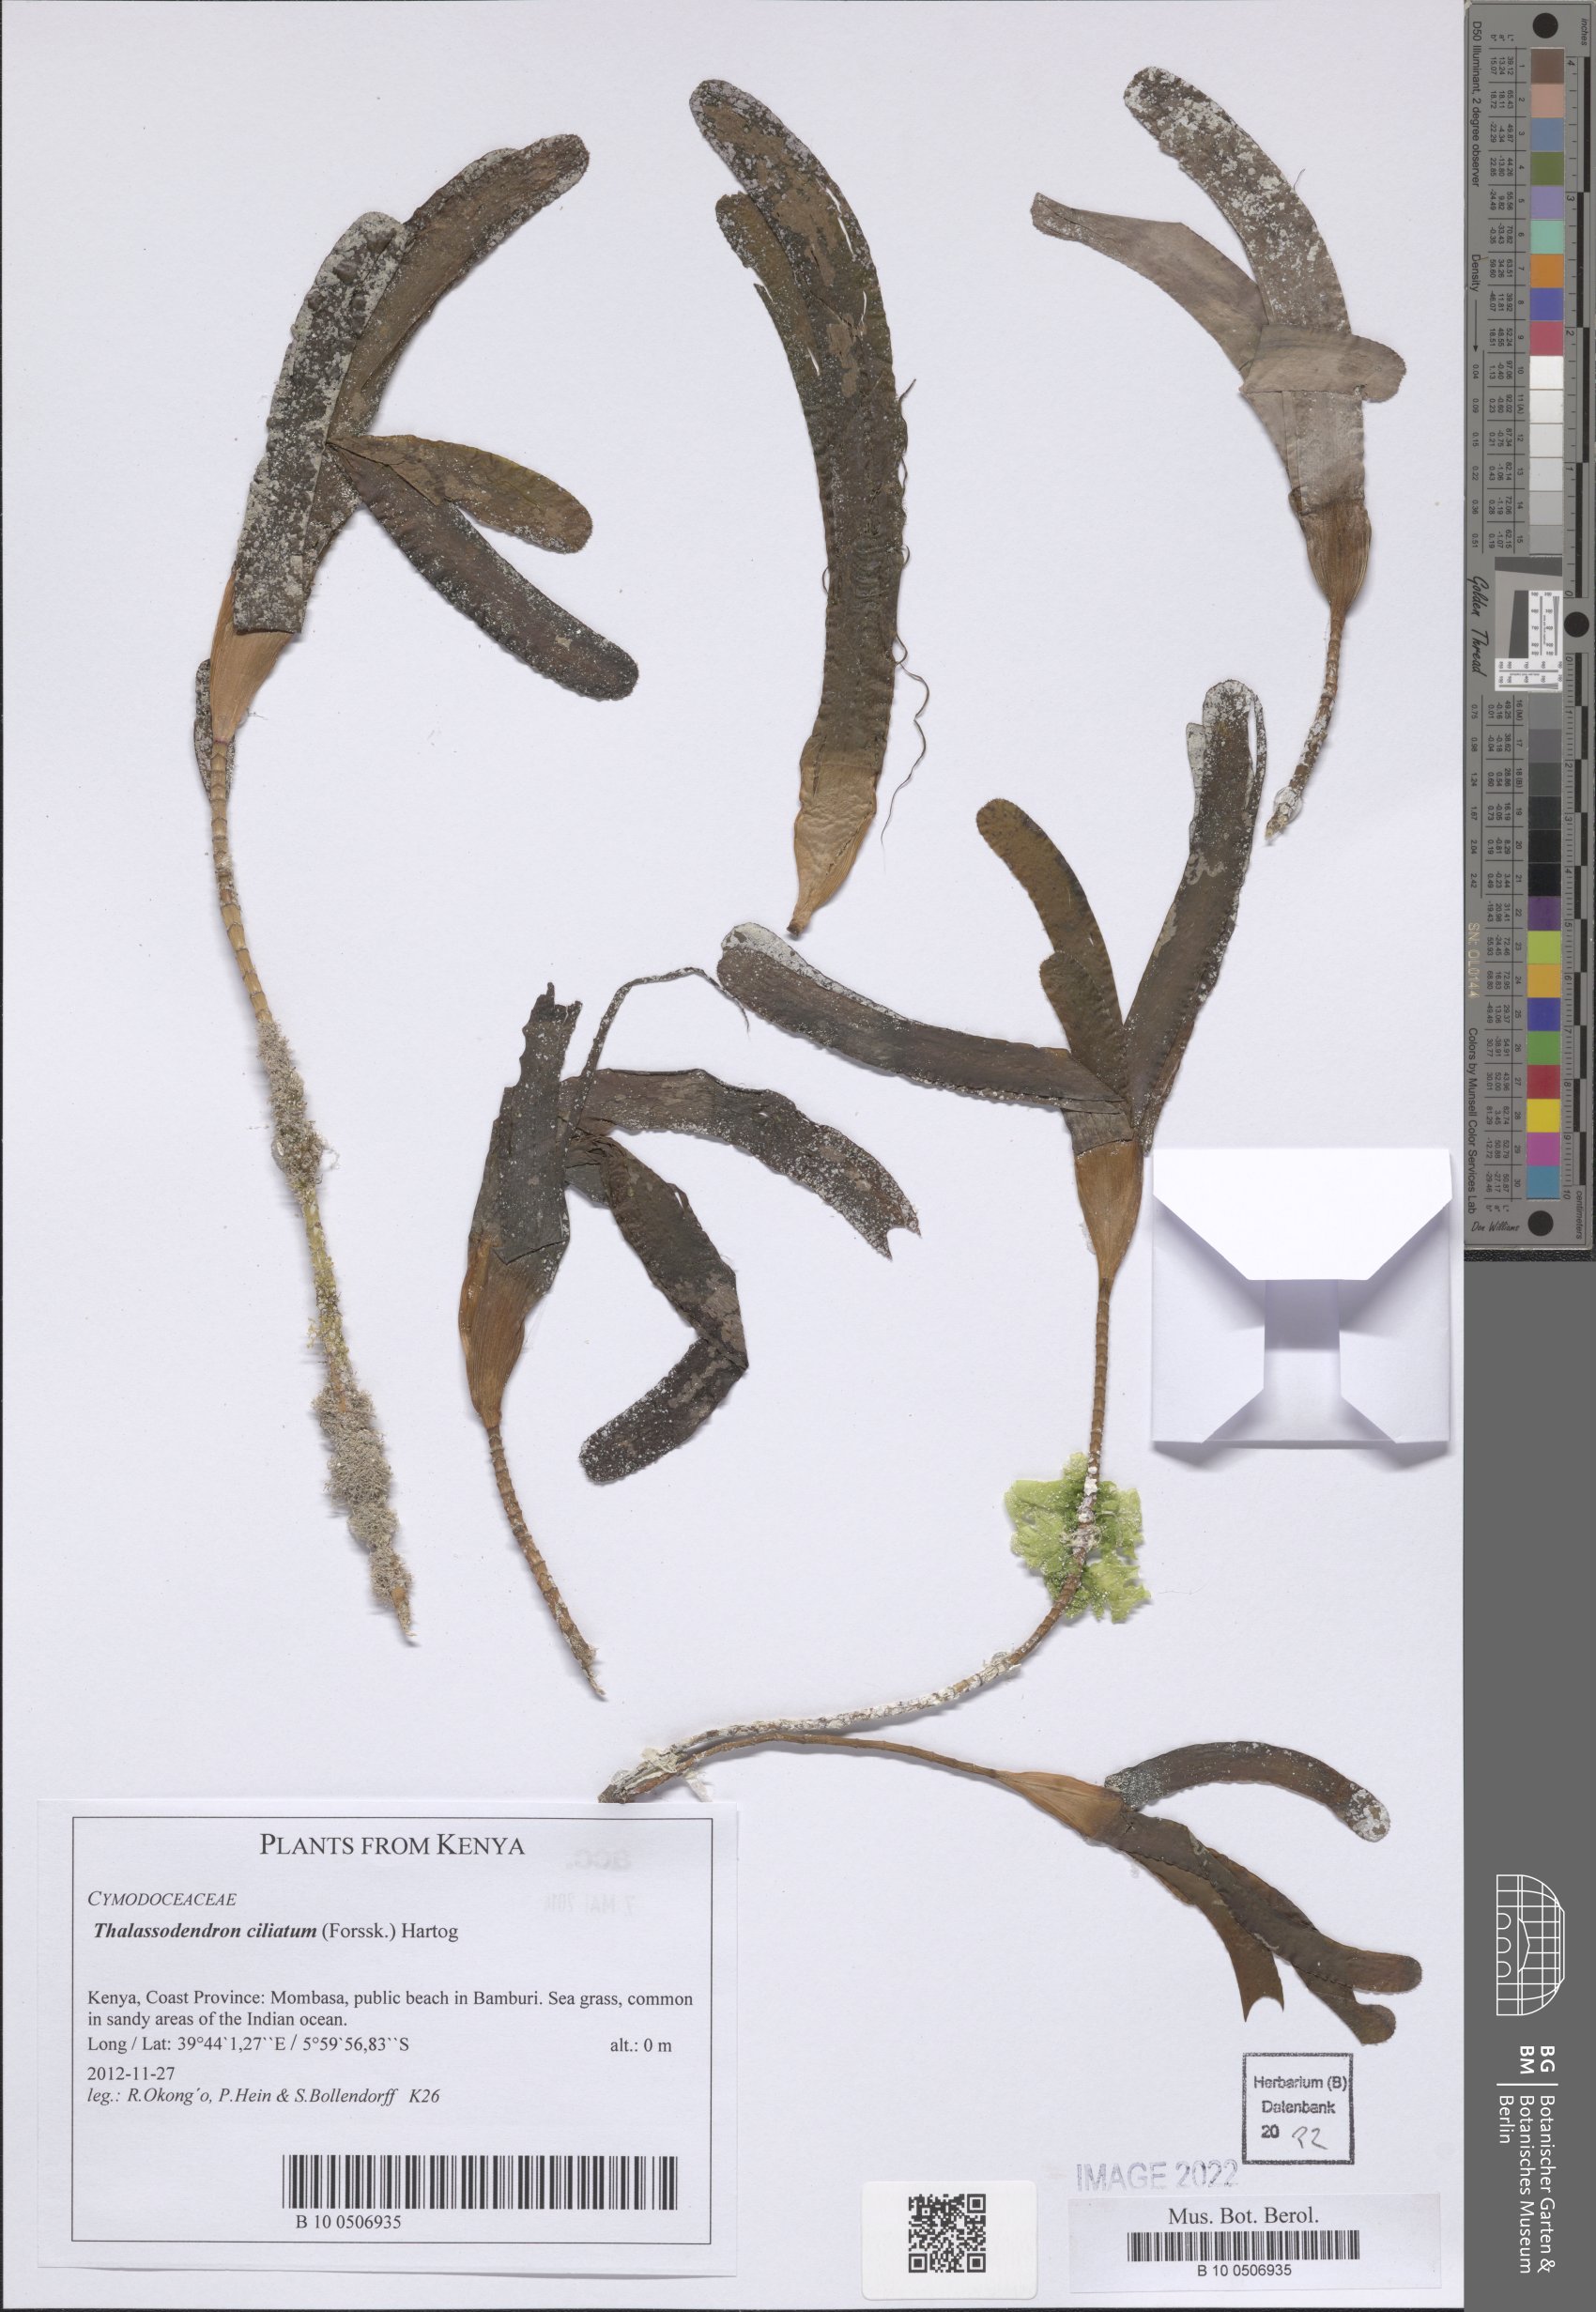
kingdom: Plantae
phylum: Tracheophyta
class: Liliopsida
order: Alismatales
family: Cymodoceaceae
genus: Thalassodendron
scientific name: Thalassodendron ciliatum
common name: Species code: tc
